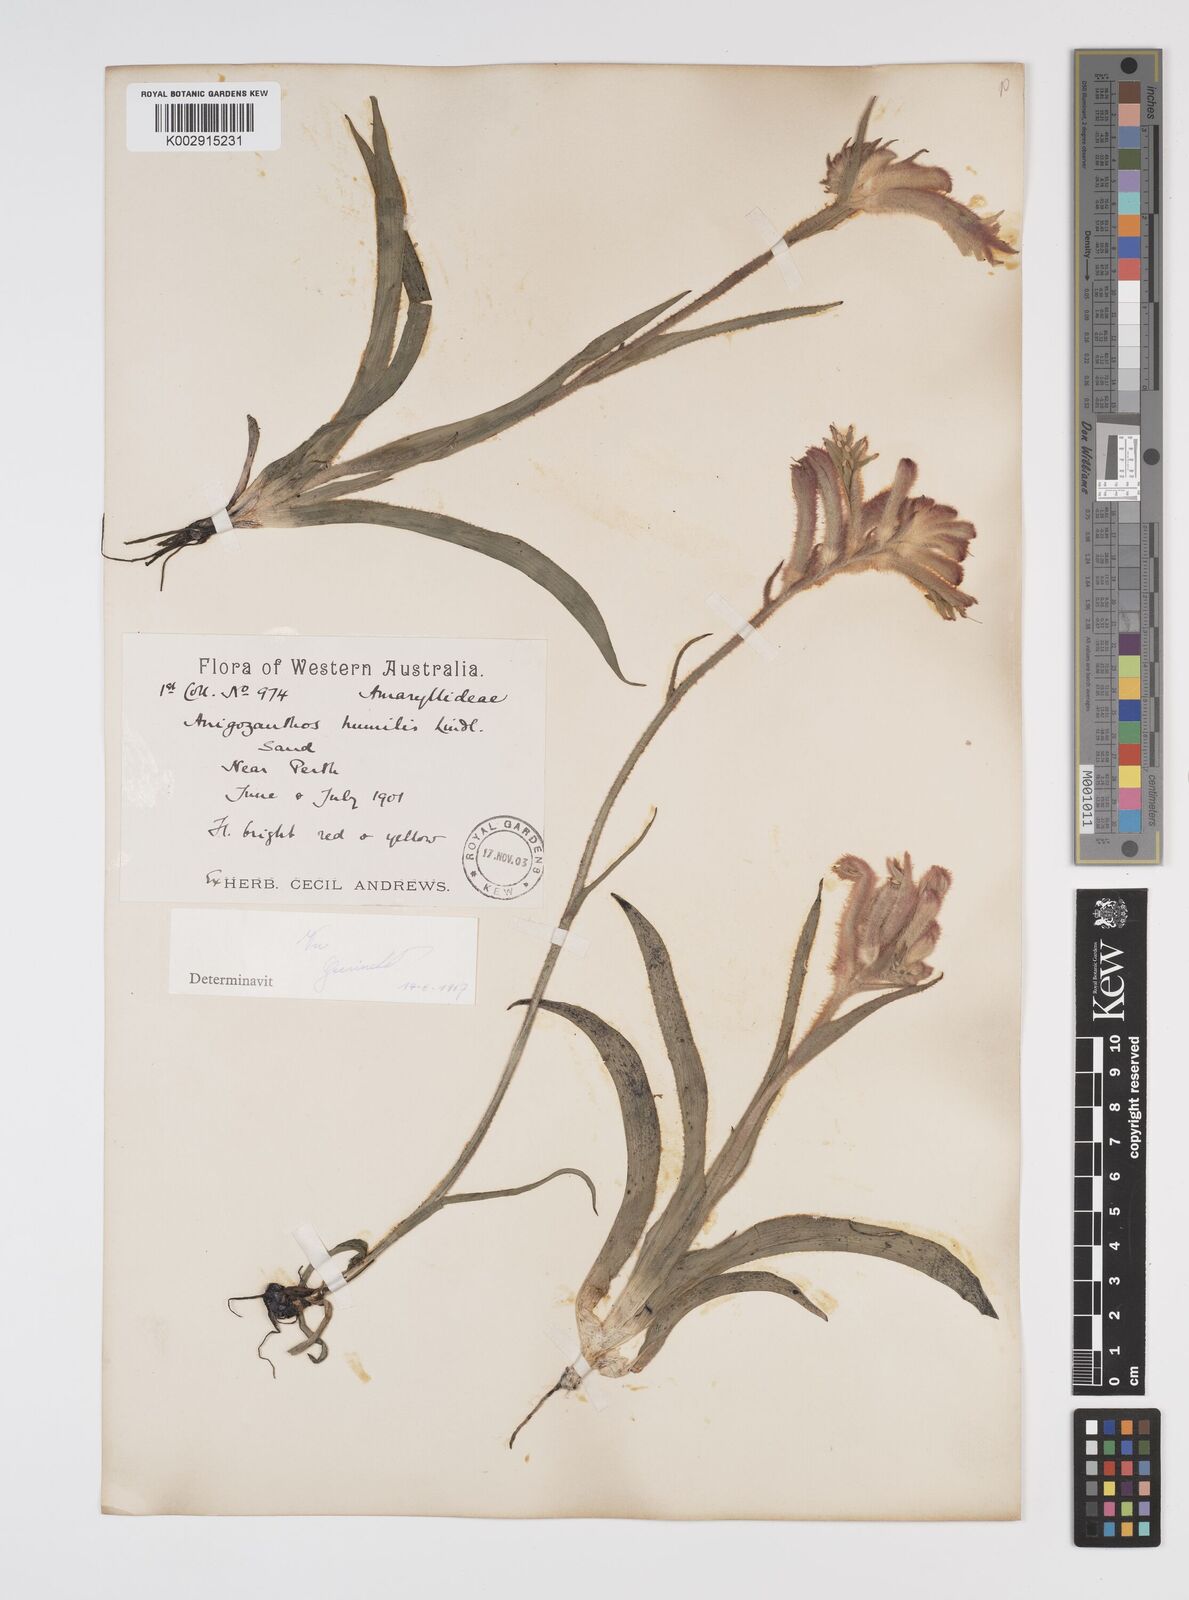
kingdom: Plantae
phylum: Tracheophyta
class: Liliopsida
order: Commelinales
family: Haemodoraceae
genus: Anigozanthos
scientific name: Anigozanthos humilis
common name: Cat's-paw
